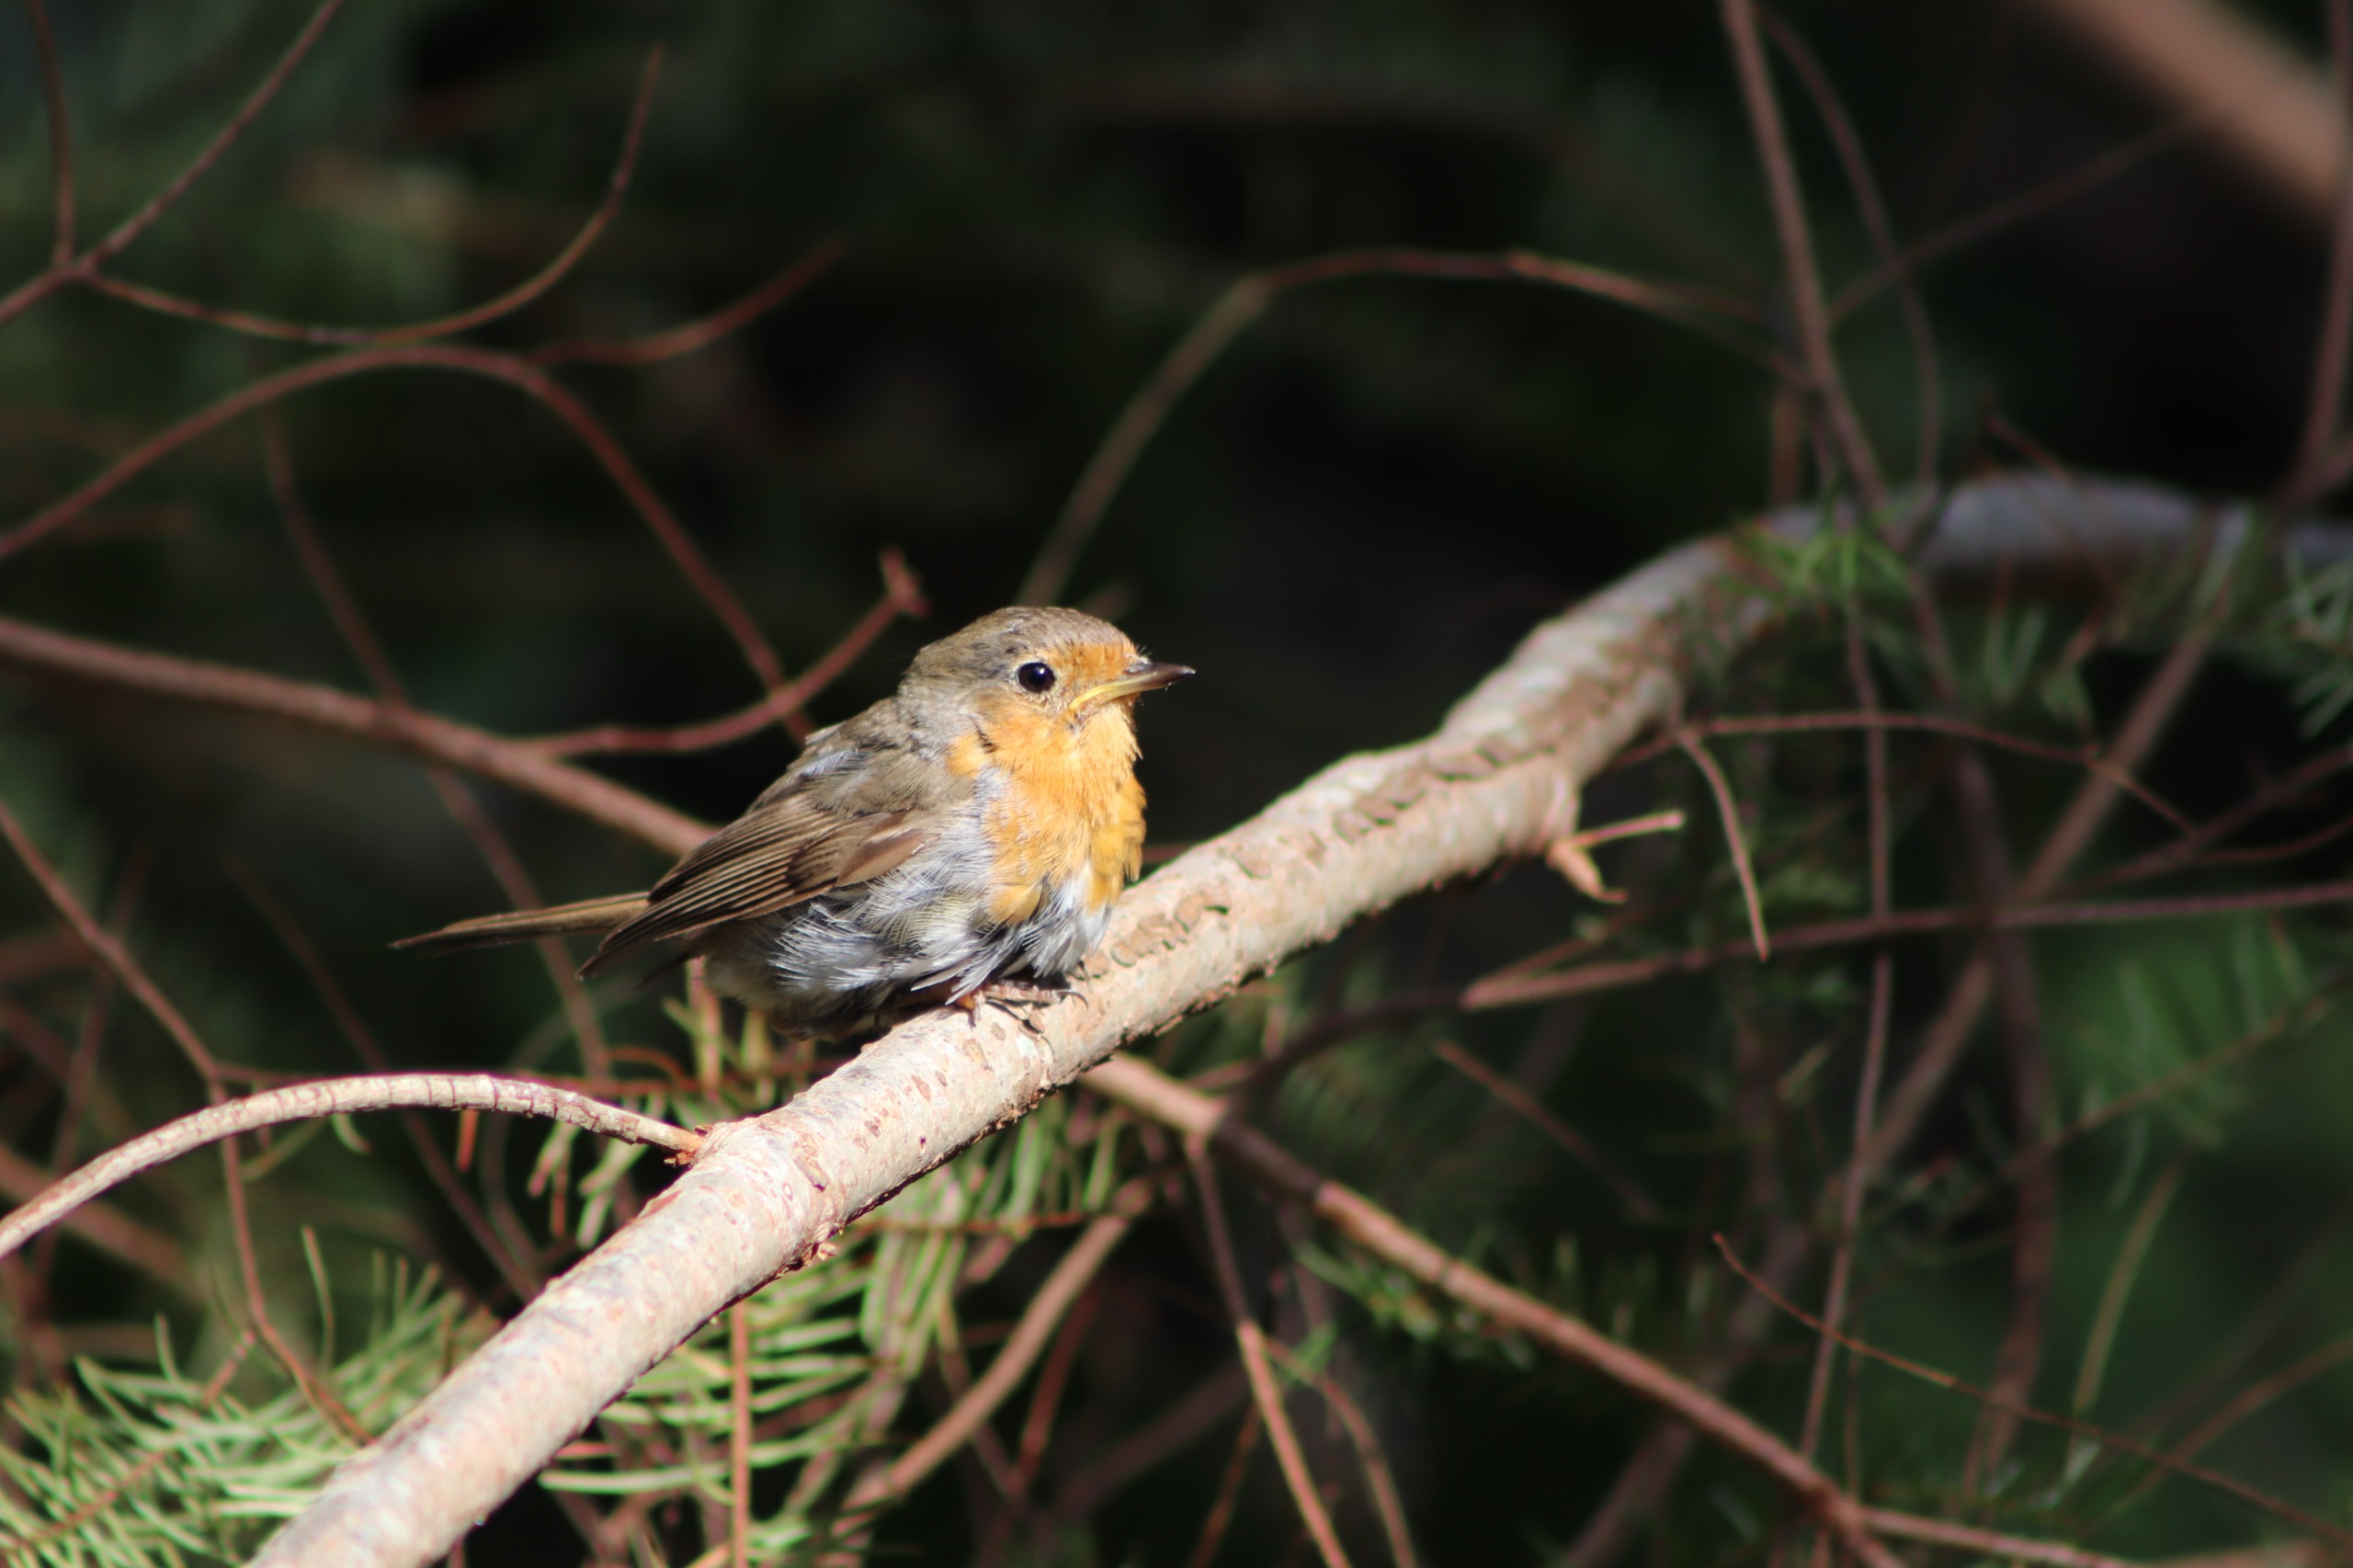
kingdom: Animalia
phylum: Chordata
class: Aves
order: Passeriformes
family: Muscicapidae
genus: Erithacus
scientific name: Erithacus rubecula
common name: Rødhals/rødkælk
